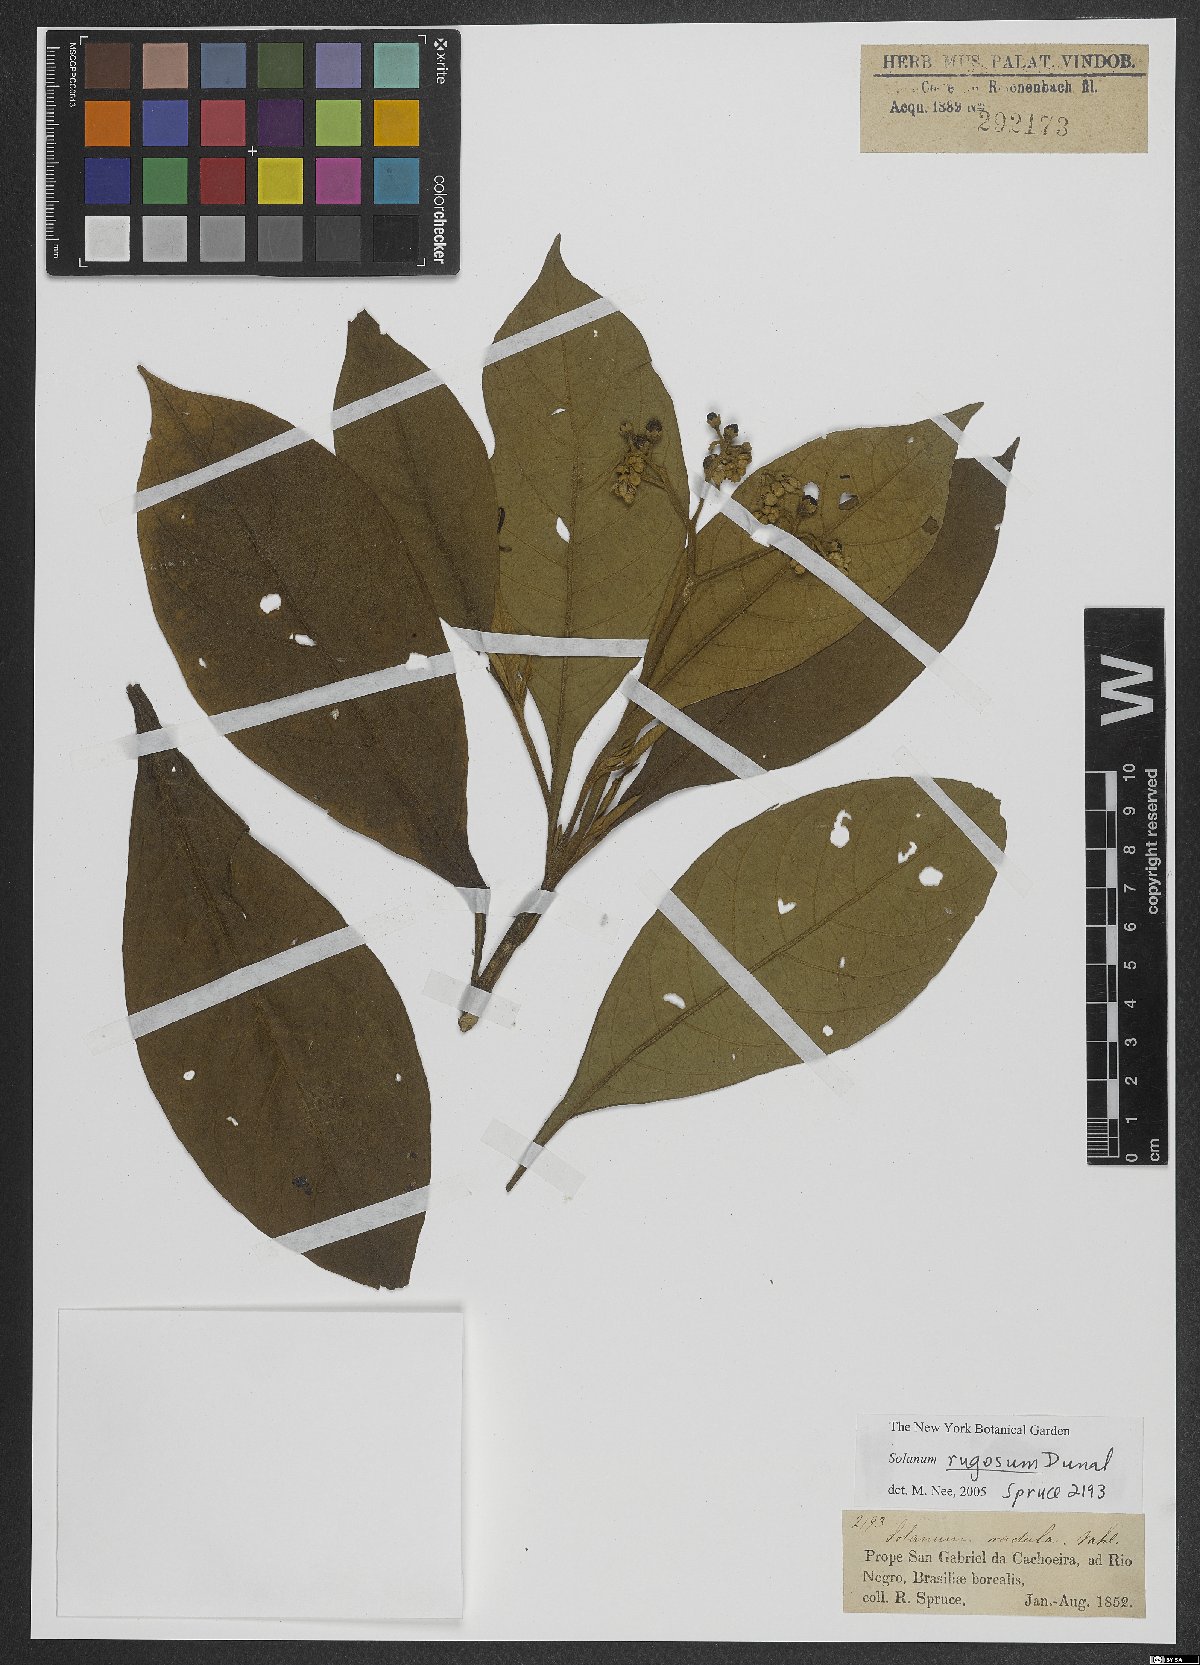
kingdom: Plantae
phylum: Tracheophyta
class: Magnoliopsida
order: Solanales
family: Solanaceae
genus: Solanum
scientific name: Solanum rugosum
